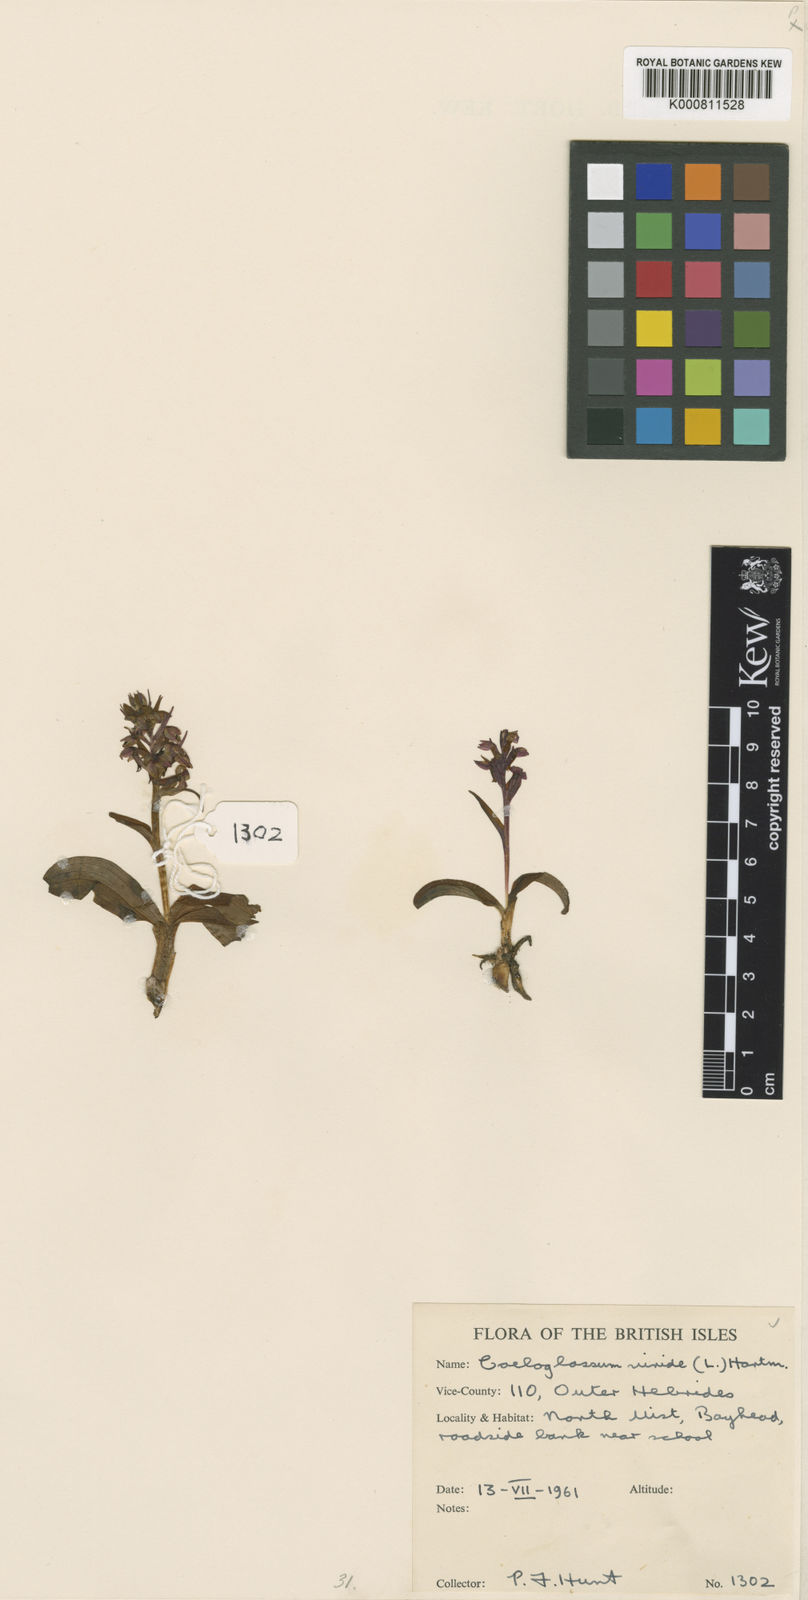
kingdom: Plantae
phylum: Tracheophyta
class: Liliopsida
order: Asparagales
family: Orchidaceae
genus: Dactylorhiza
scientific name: Dactylorhiza viridis
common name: Longbract frog orchid
